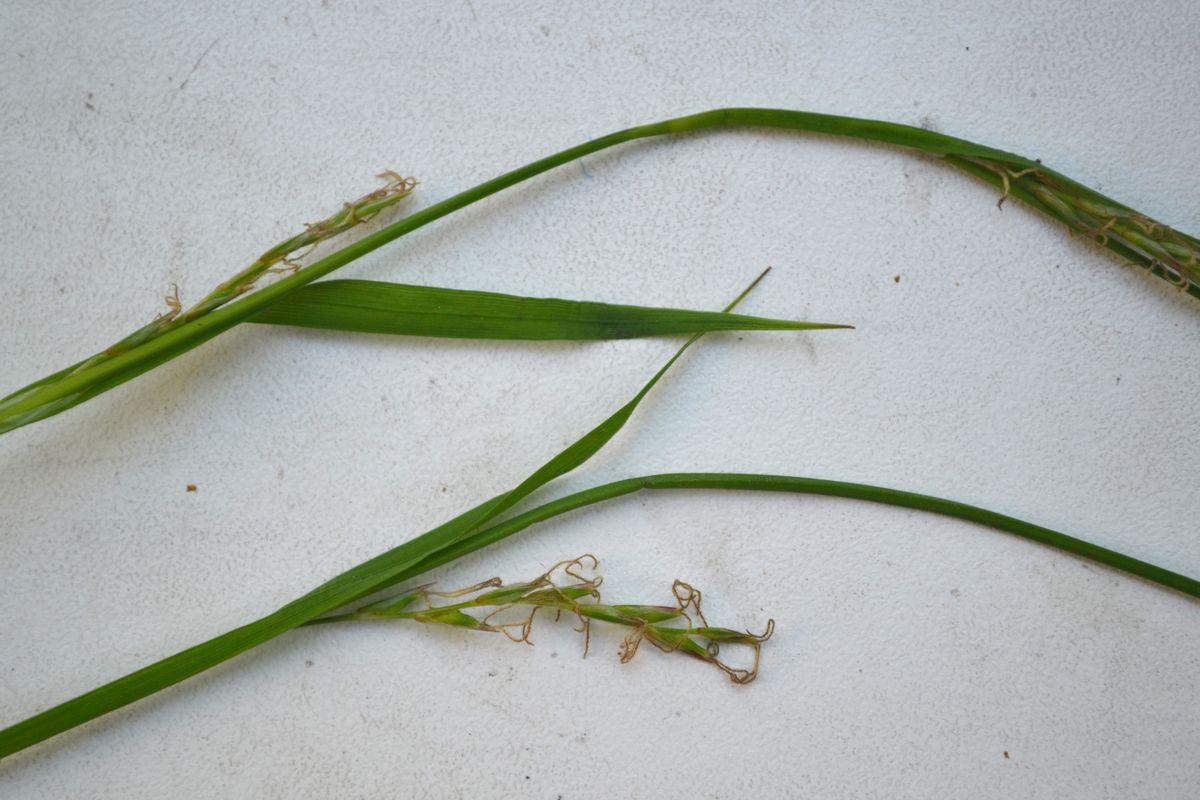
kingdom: Plantae
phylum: Tracheophyta
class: Liliopsida
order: Poales
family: Cyperaceae
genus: Carex
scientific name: Carex pilosa
